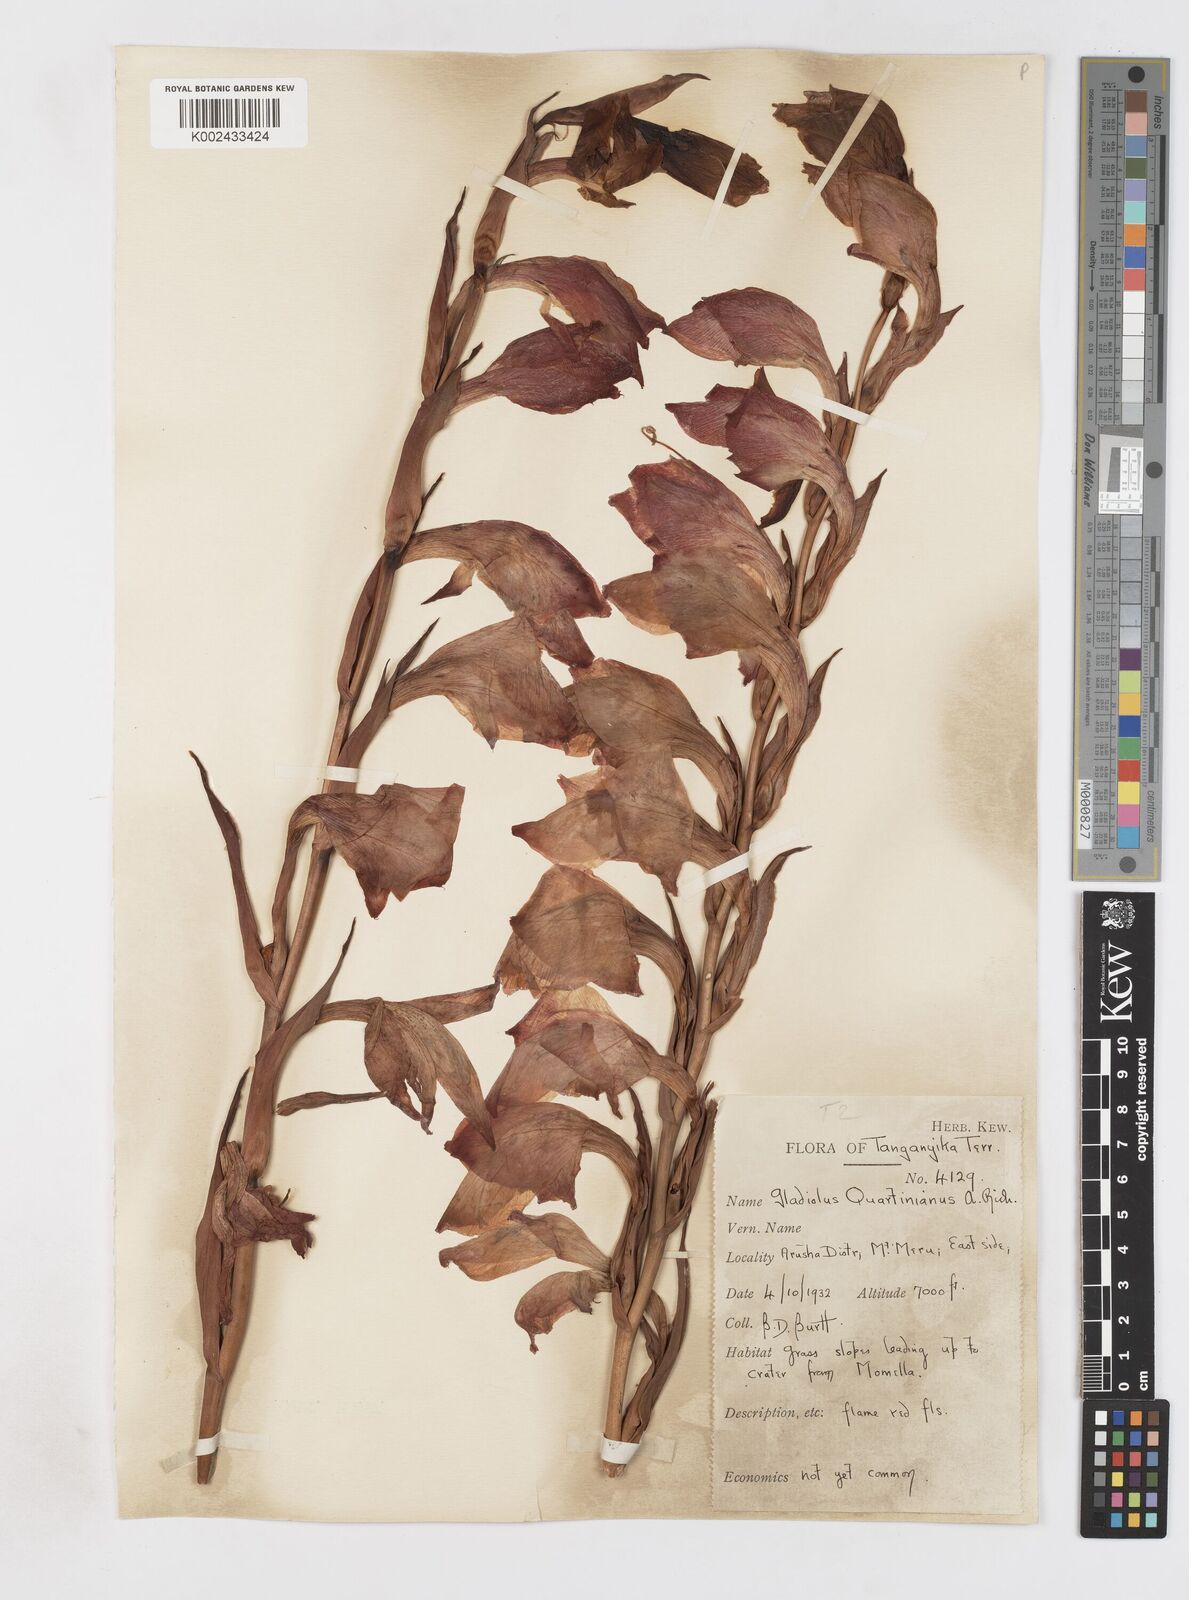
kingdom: Plantae
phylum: Tracheophyta
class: Liliopsida
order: Asparagales
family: Iridaceae
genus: Gladiolus
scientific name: Gladiolus dalenii
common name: Cornflag
